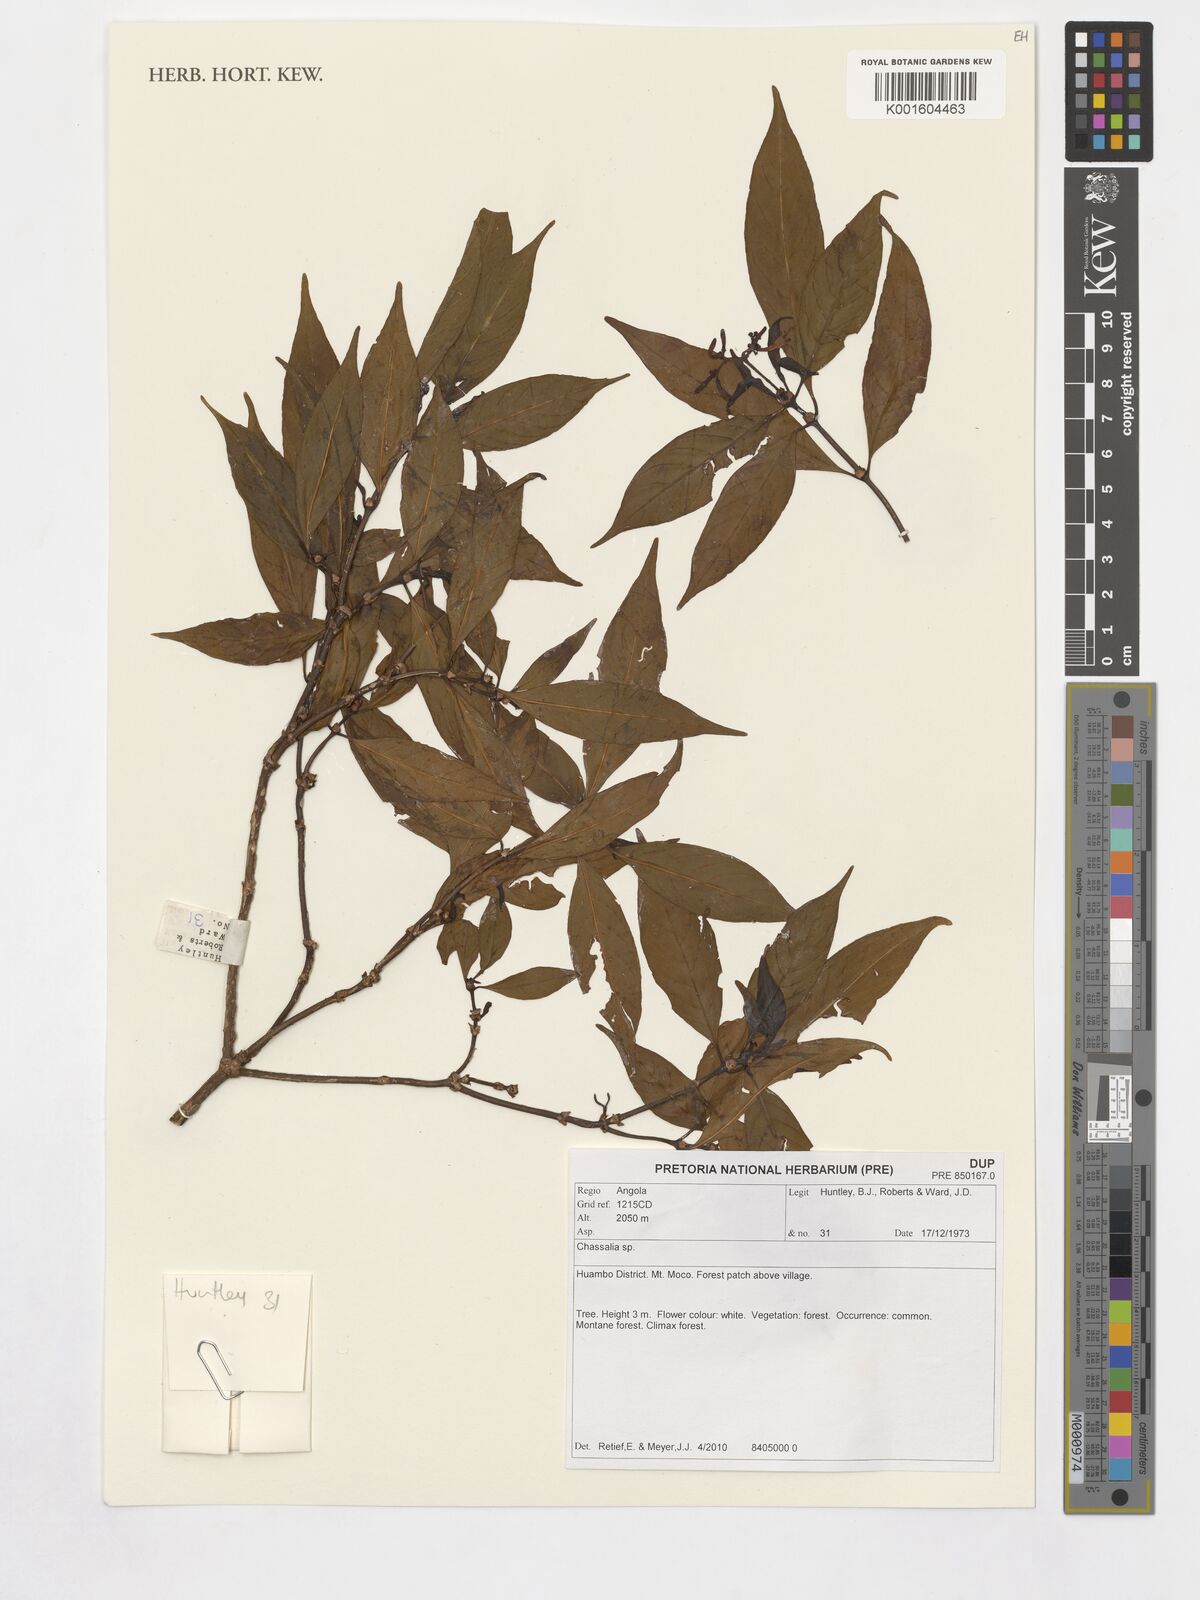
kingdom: Plantae
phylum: Tracheophyta
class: Magnoliopsida
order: Gentianales
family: Rubiaceae
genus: Chassalia
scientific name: Chassalia
